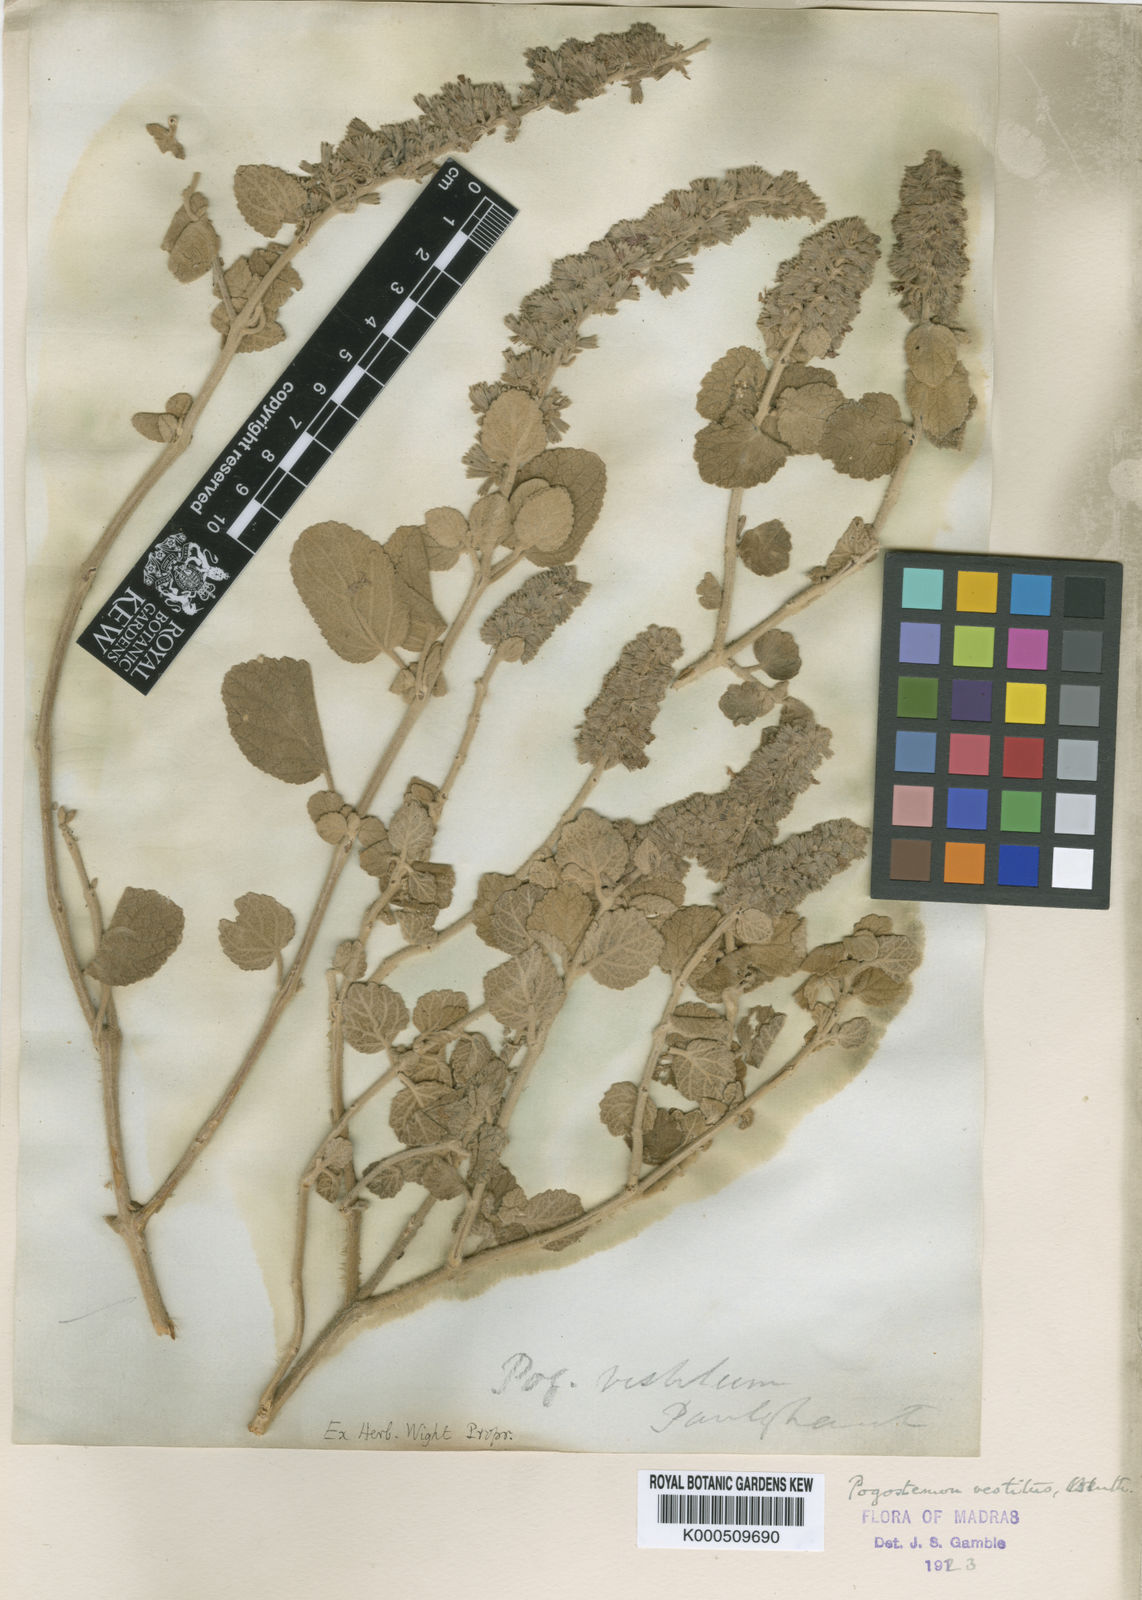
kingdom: Plantae
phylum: Tracheophyta
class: Magnoliopsida
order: Lamiales
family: Lamiaceae
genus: Pogostemon
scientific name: Pogostemon vestitus
